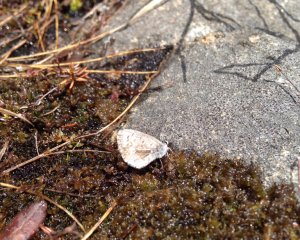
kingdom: Animalia
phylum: Arthropoda
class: Insecta
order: Lepidoptera
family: Lycaenidae
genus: Celastrina
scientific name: Celastrina lucia
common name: Northern Spring Azure
